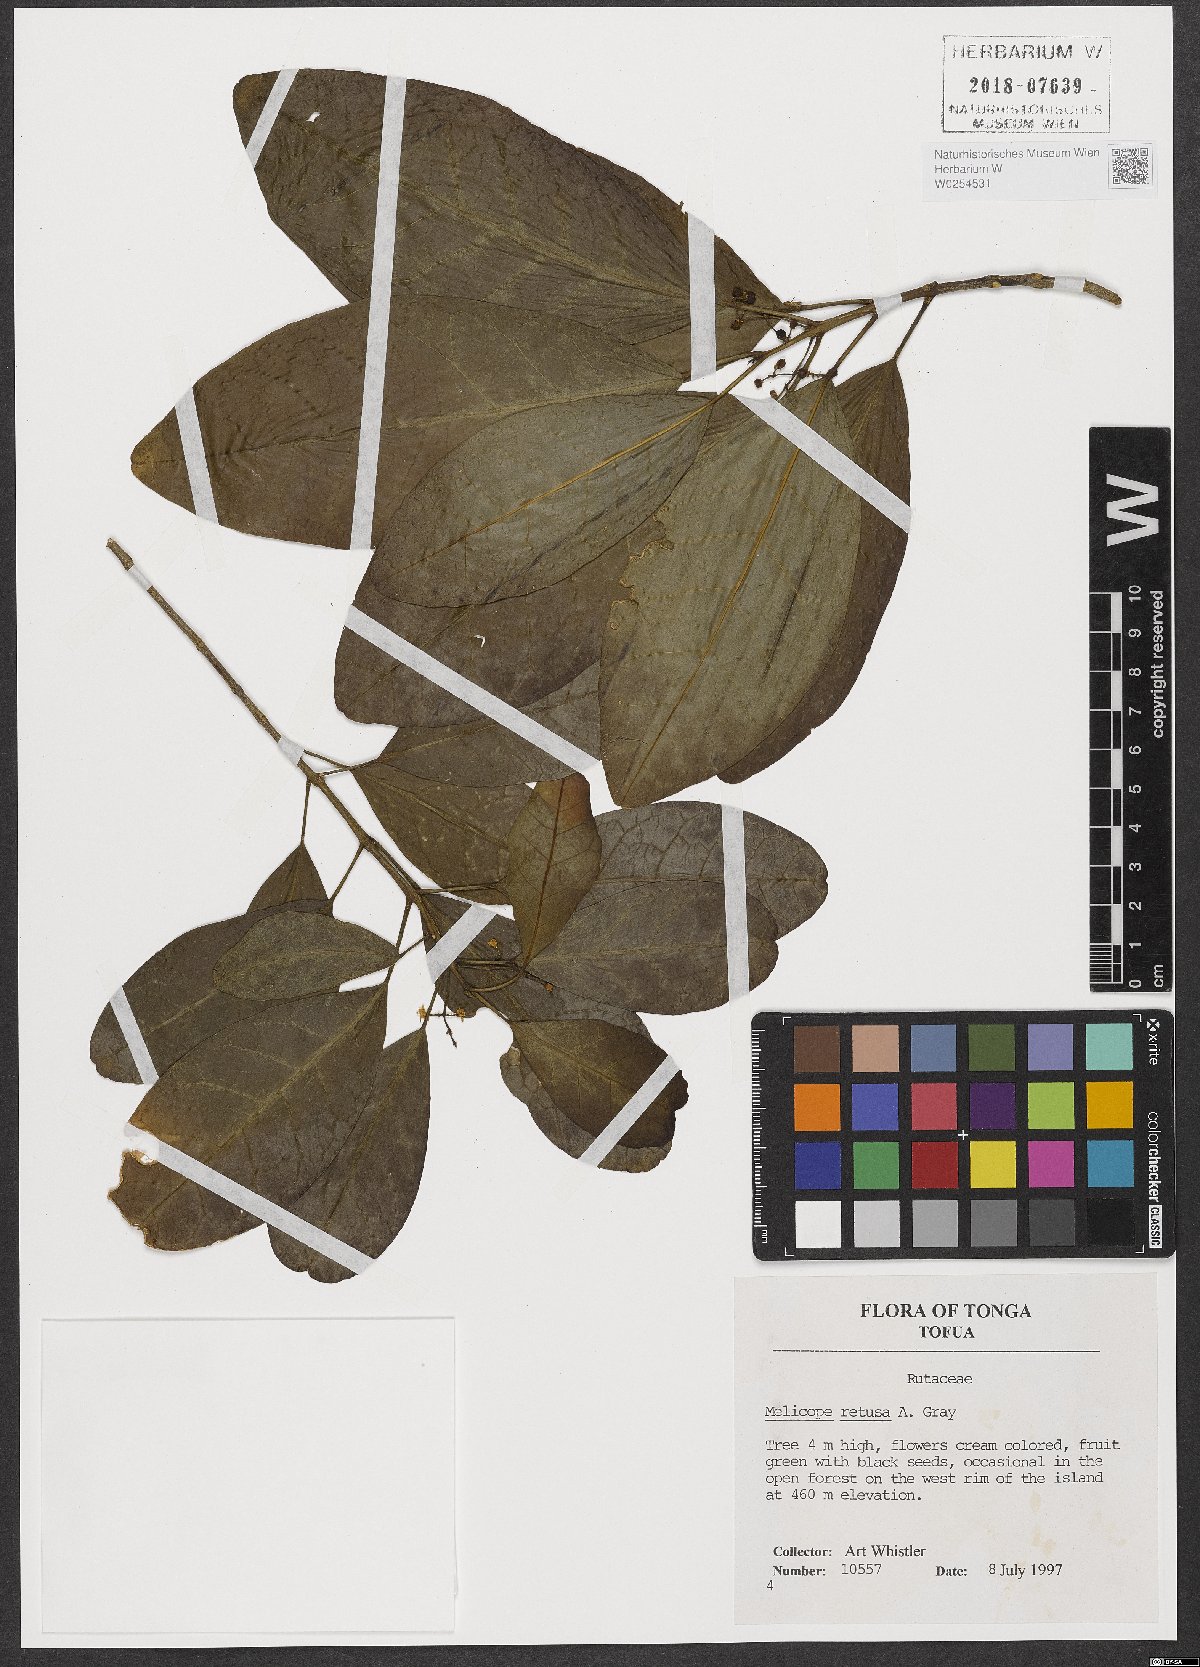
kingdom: Plantae
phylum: Tracheophyta
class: Magnoliopsida
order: Sapindales
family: Rutaceae
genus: Melicope
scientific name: Melicope retusa
